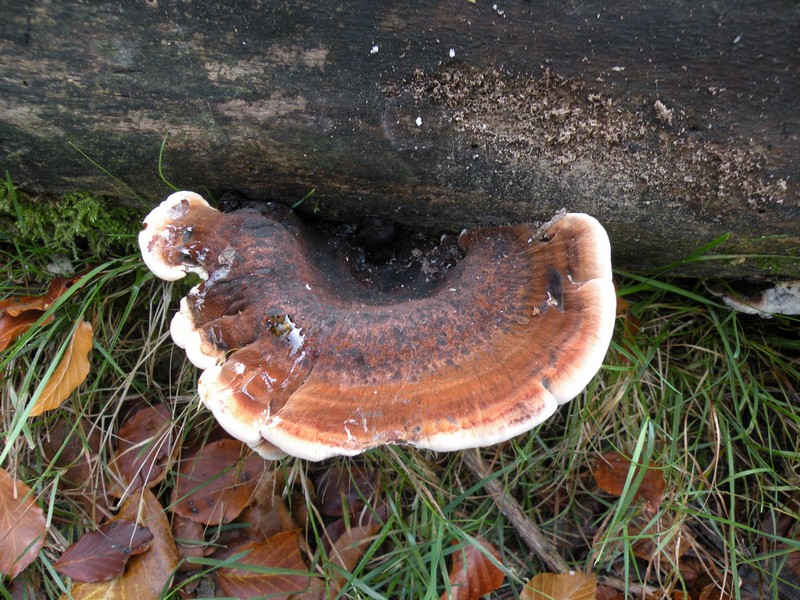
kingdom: Fungi
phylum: Basidiomycota
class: Agaricomycetes
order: Polyporales
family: Ischnodermataceae
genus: Ischnoderma
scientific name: Ischnoderma resinosum
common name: løv-tjæreporesvamp
